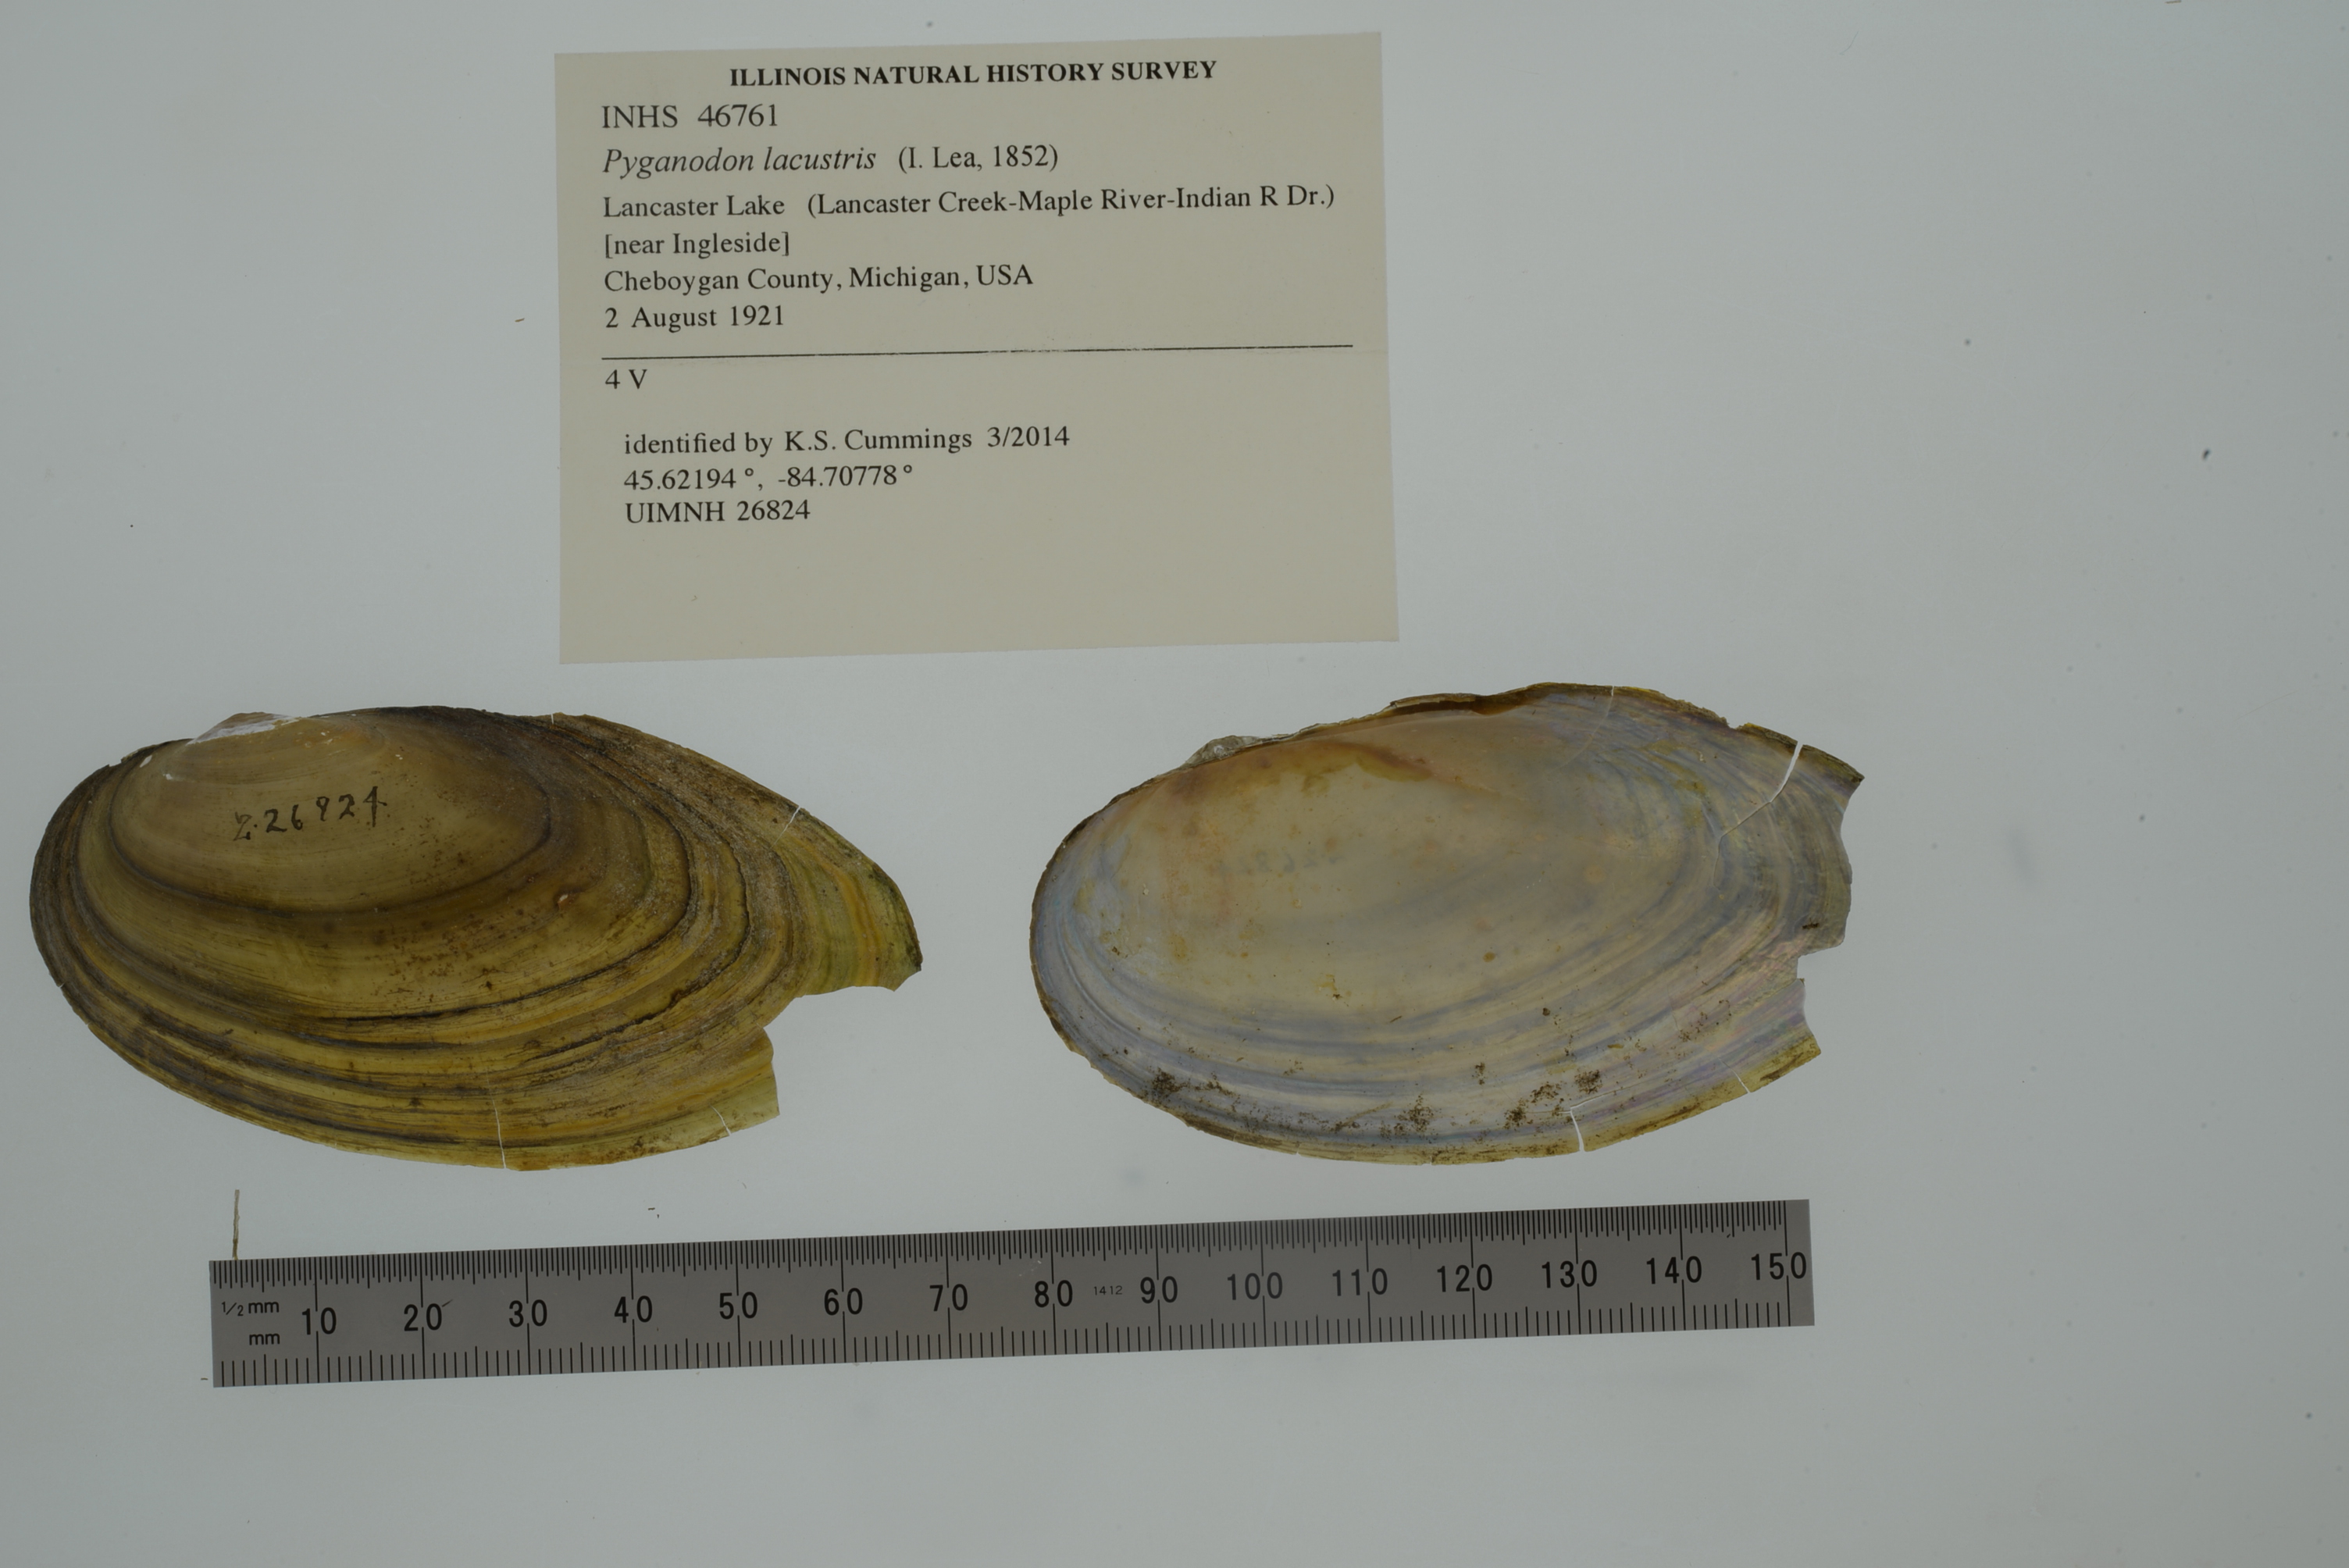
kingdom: Animalia
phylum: Mollusca
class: Bivalvia
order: Unionida
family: Unionidae
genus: Pyganodon
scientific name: Pyganodon lacustris
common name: Lake floater
